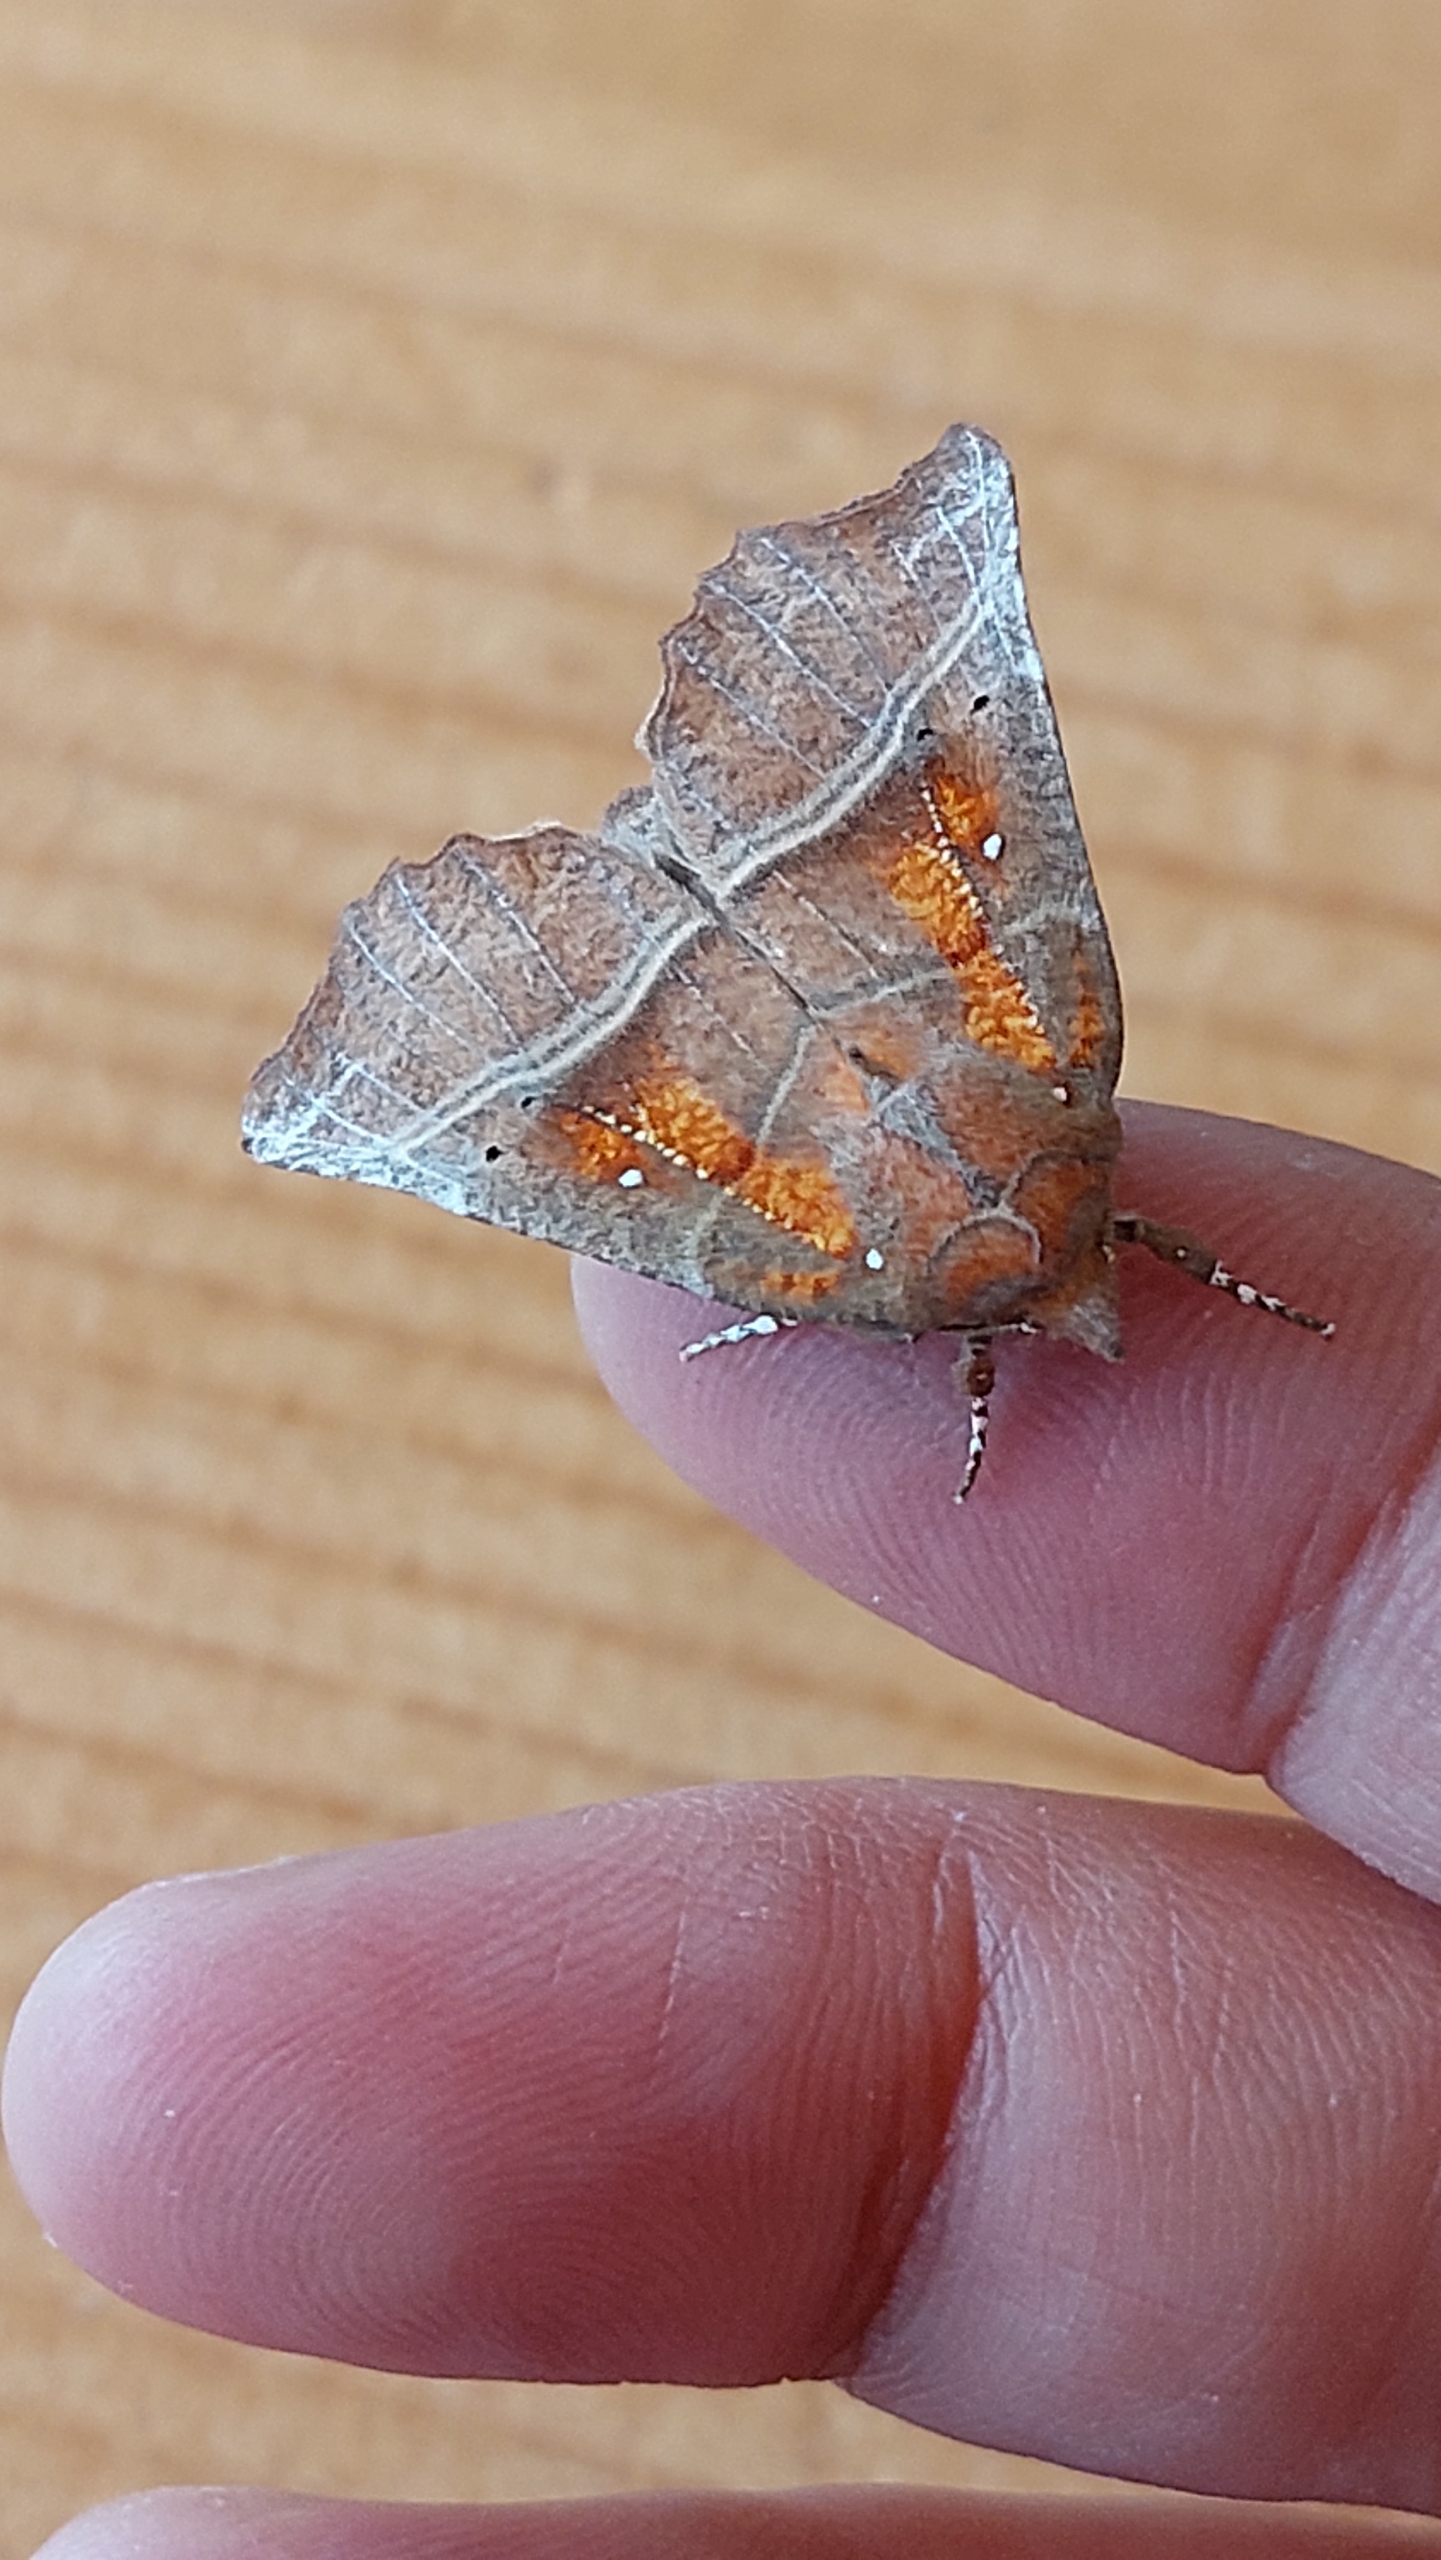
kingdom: Animalia
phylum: Arthropoda
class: Insecta
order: Lepidoptera
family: Erebidae
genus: Scoliopteryx
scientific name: Scoliopteryx libatrix
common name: Husmoderugle
